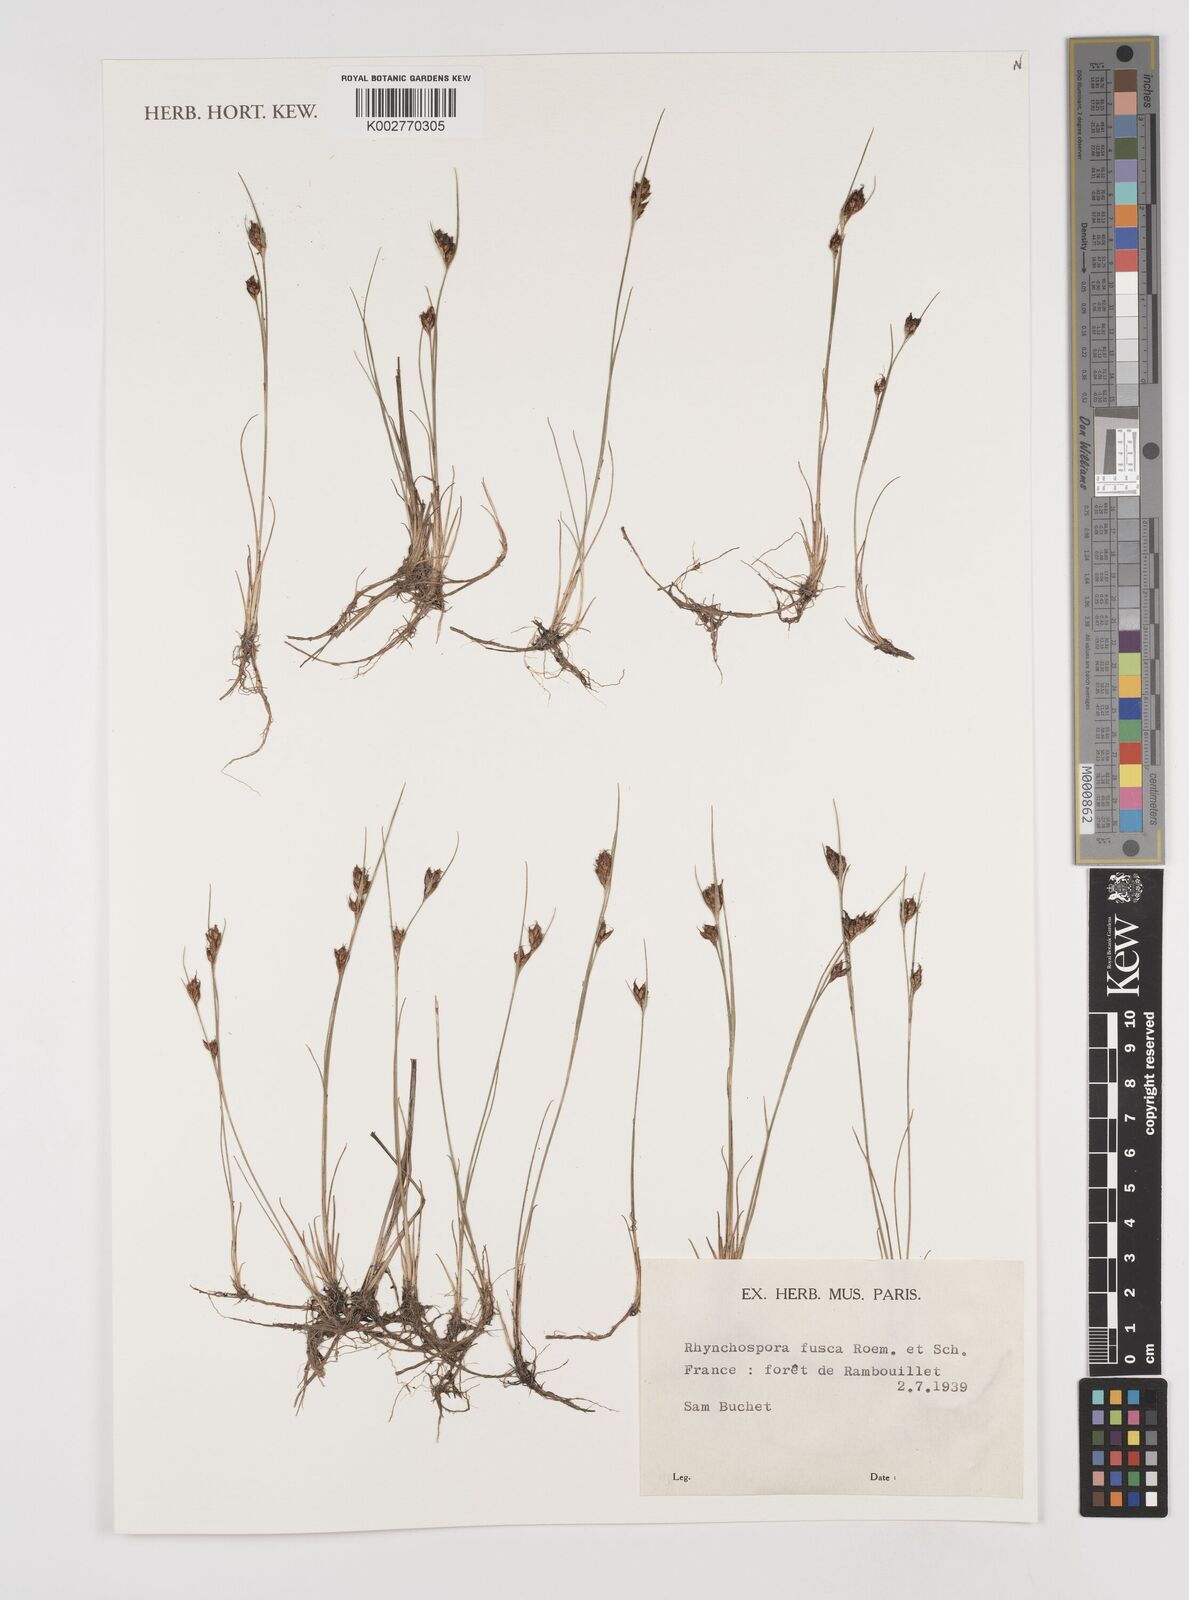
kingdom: Plantae
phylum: Tracheophyta
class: Liliopsida
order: Poales
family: Cyperaceae
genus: Rhynchospora
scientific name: Rhynchospora fusca
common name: Brown beak-sedge
